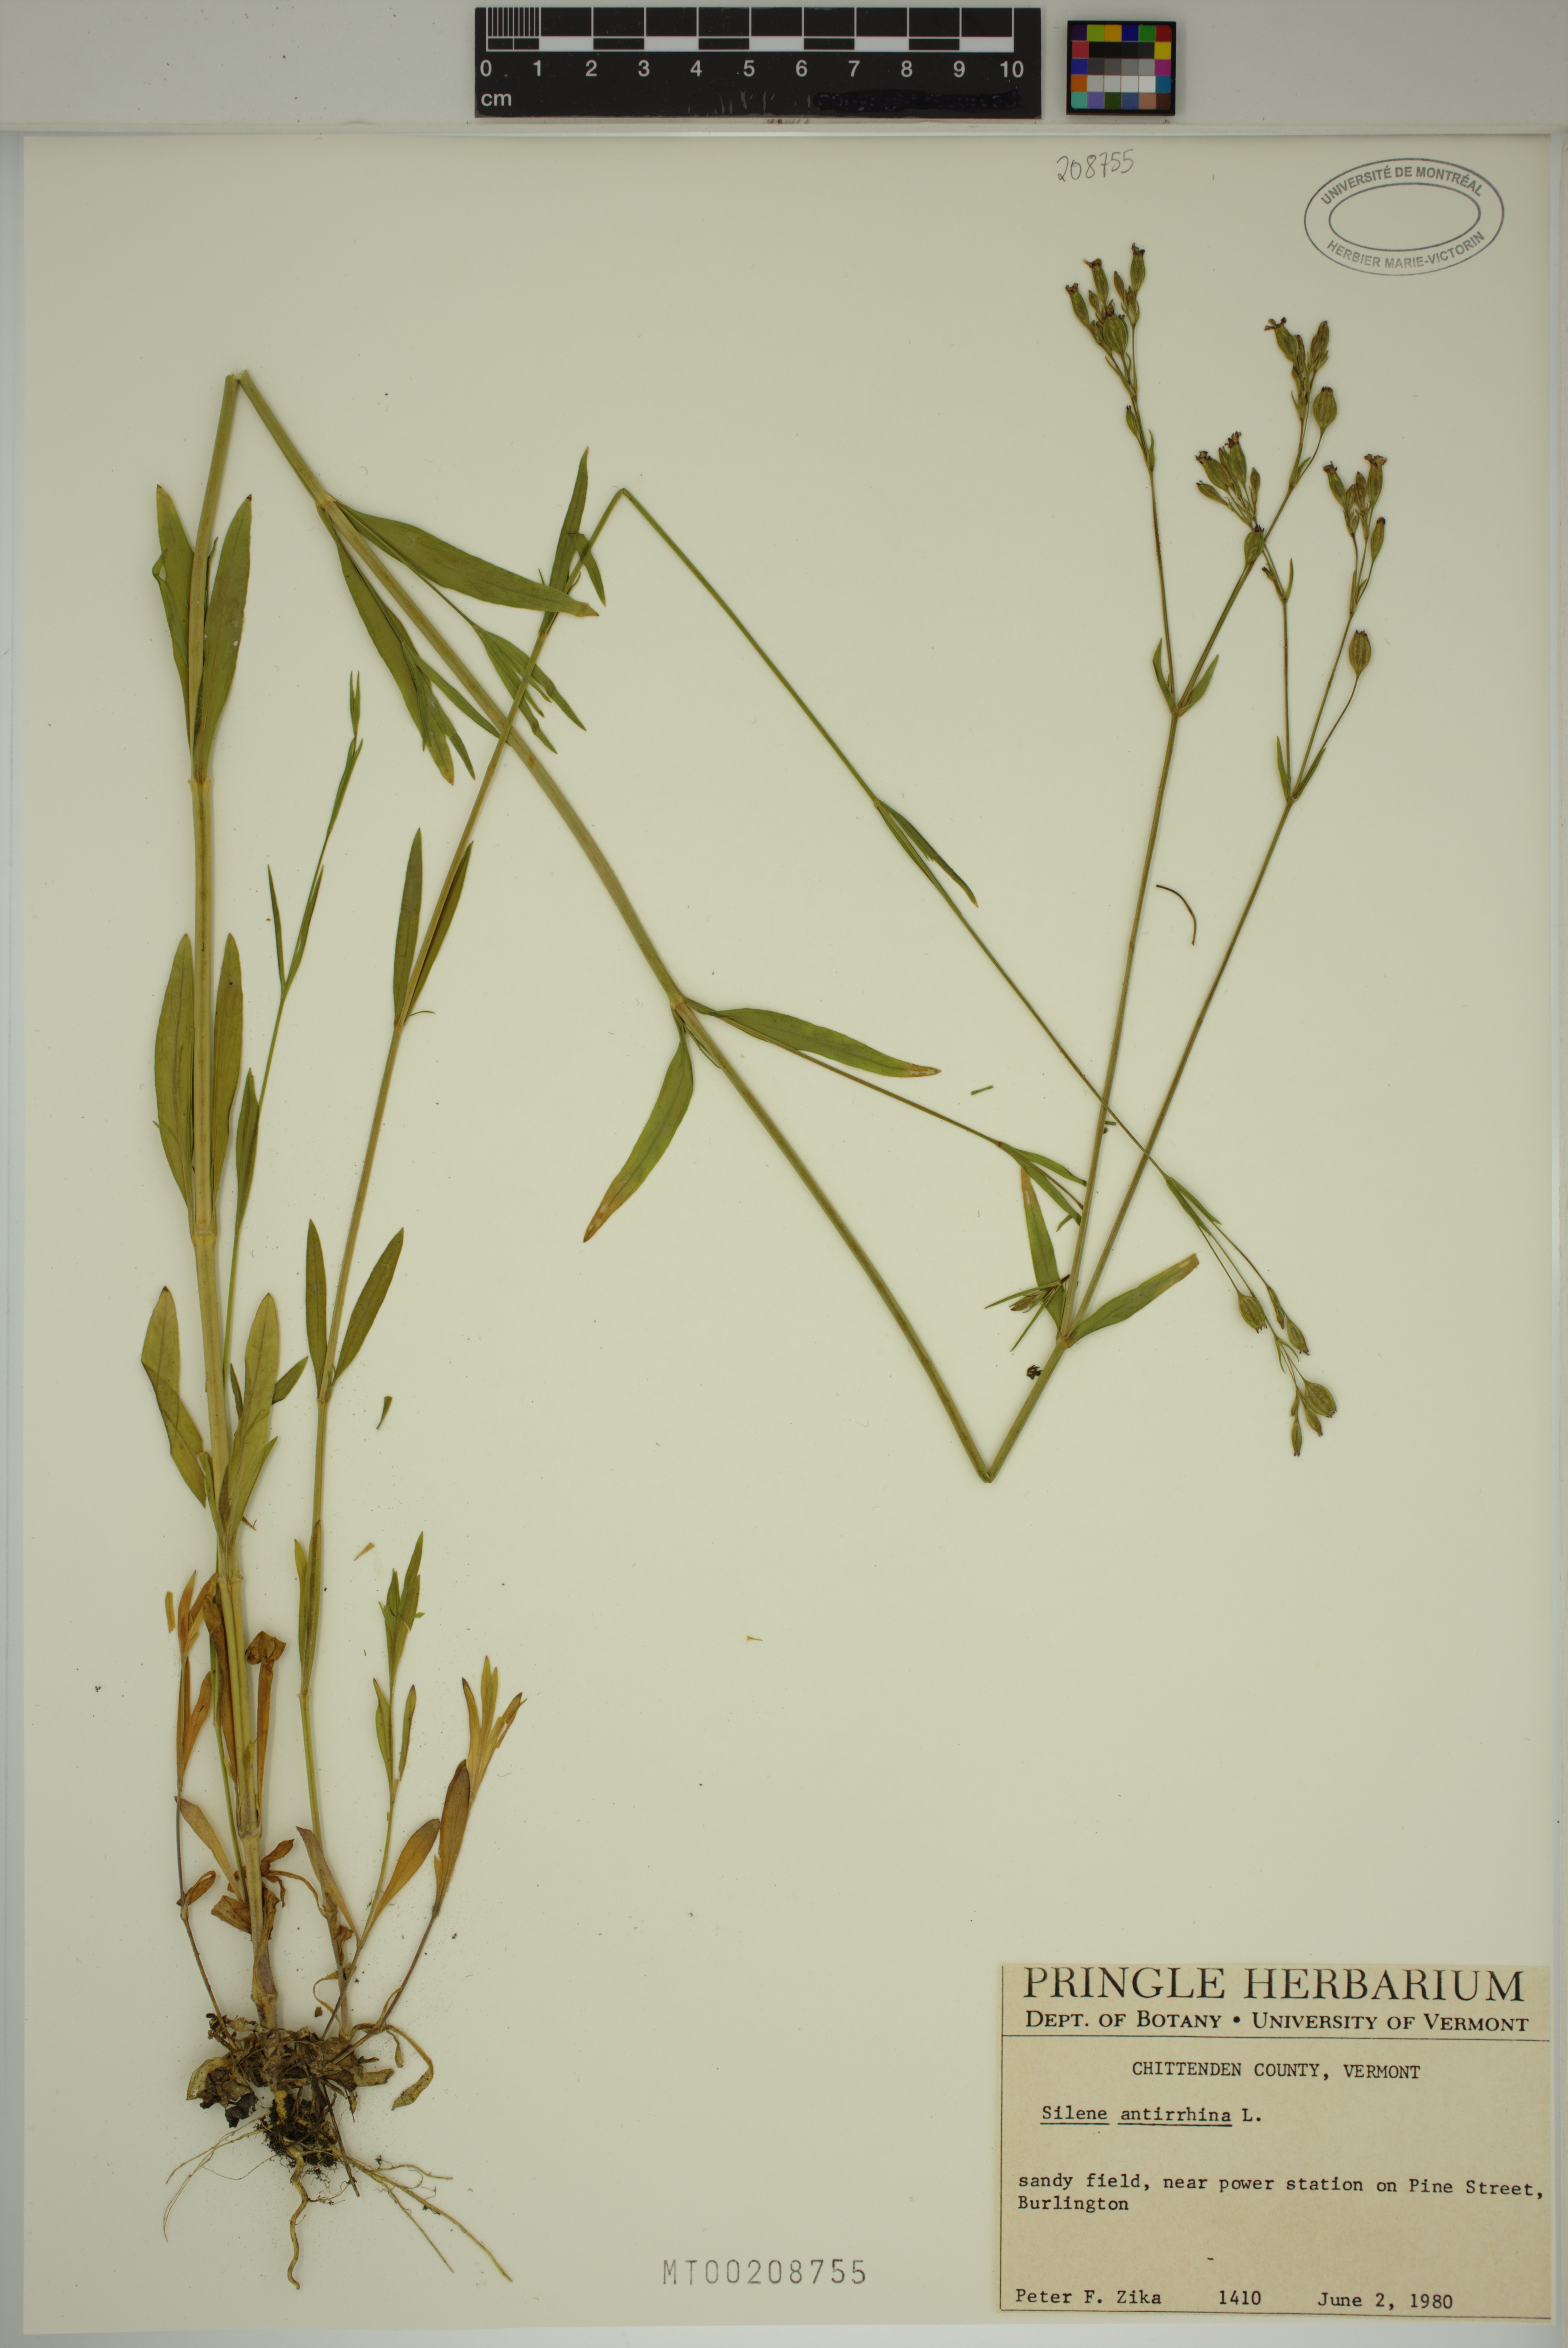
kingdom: Plantae
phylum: Tracheophyta
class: Magnoliopsida
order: Caryophyllales
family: Caryophyllaceae
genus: Silene
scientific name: Silene antirrhina
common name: Sleepy catchfly
